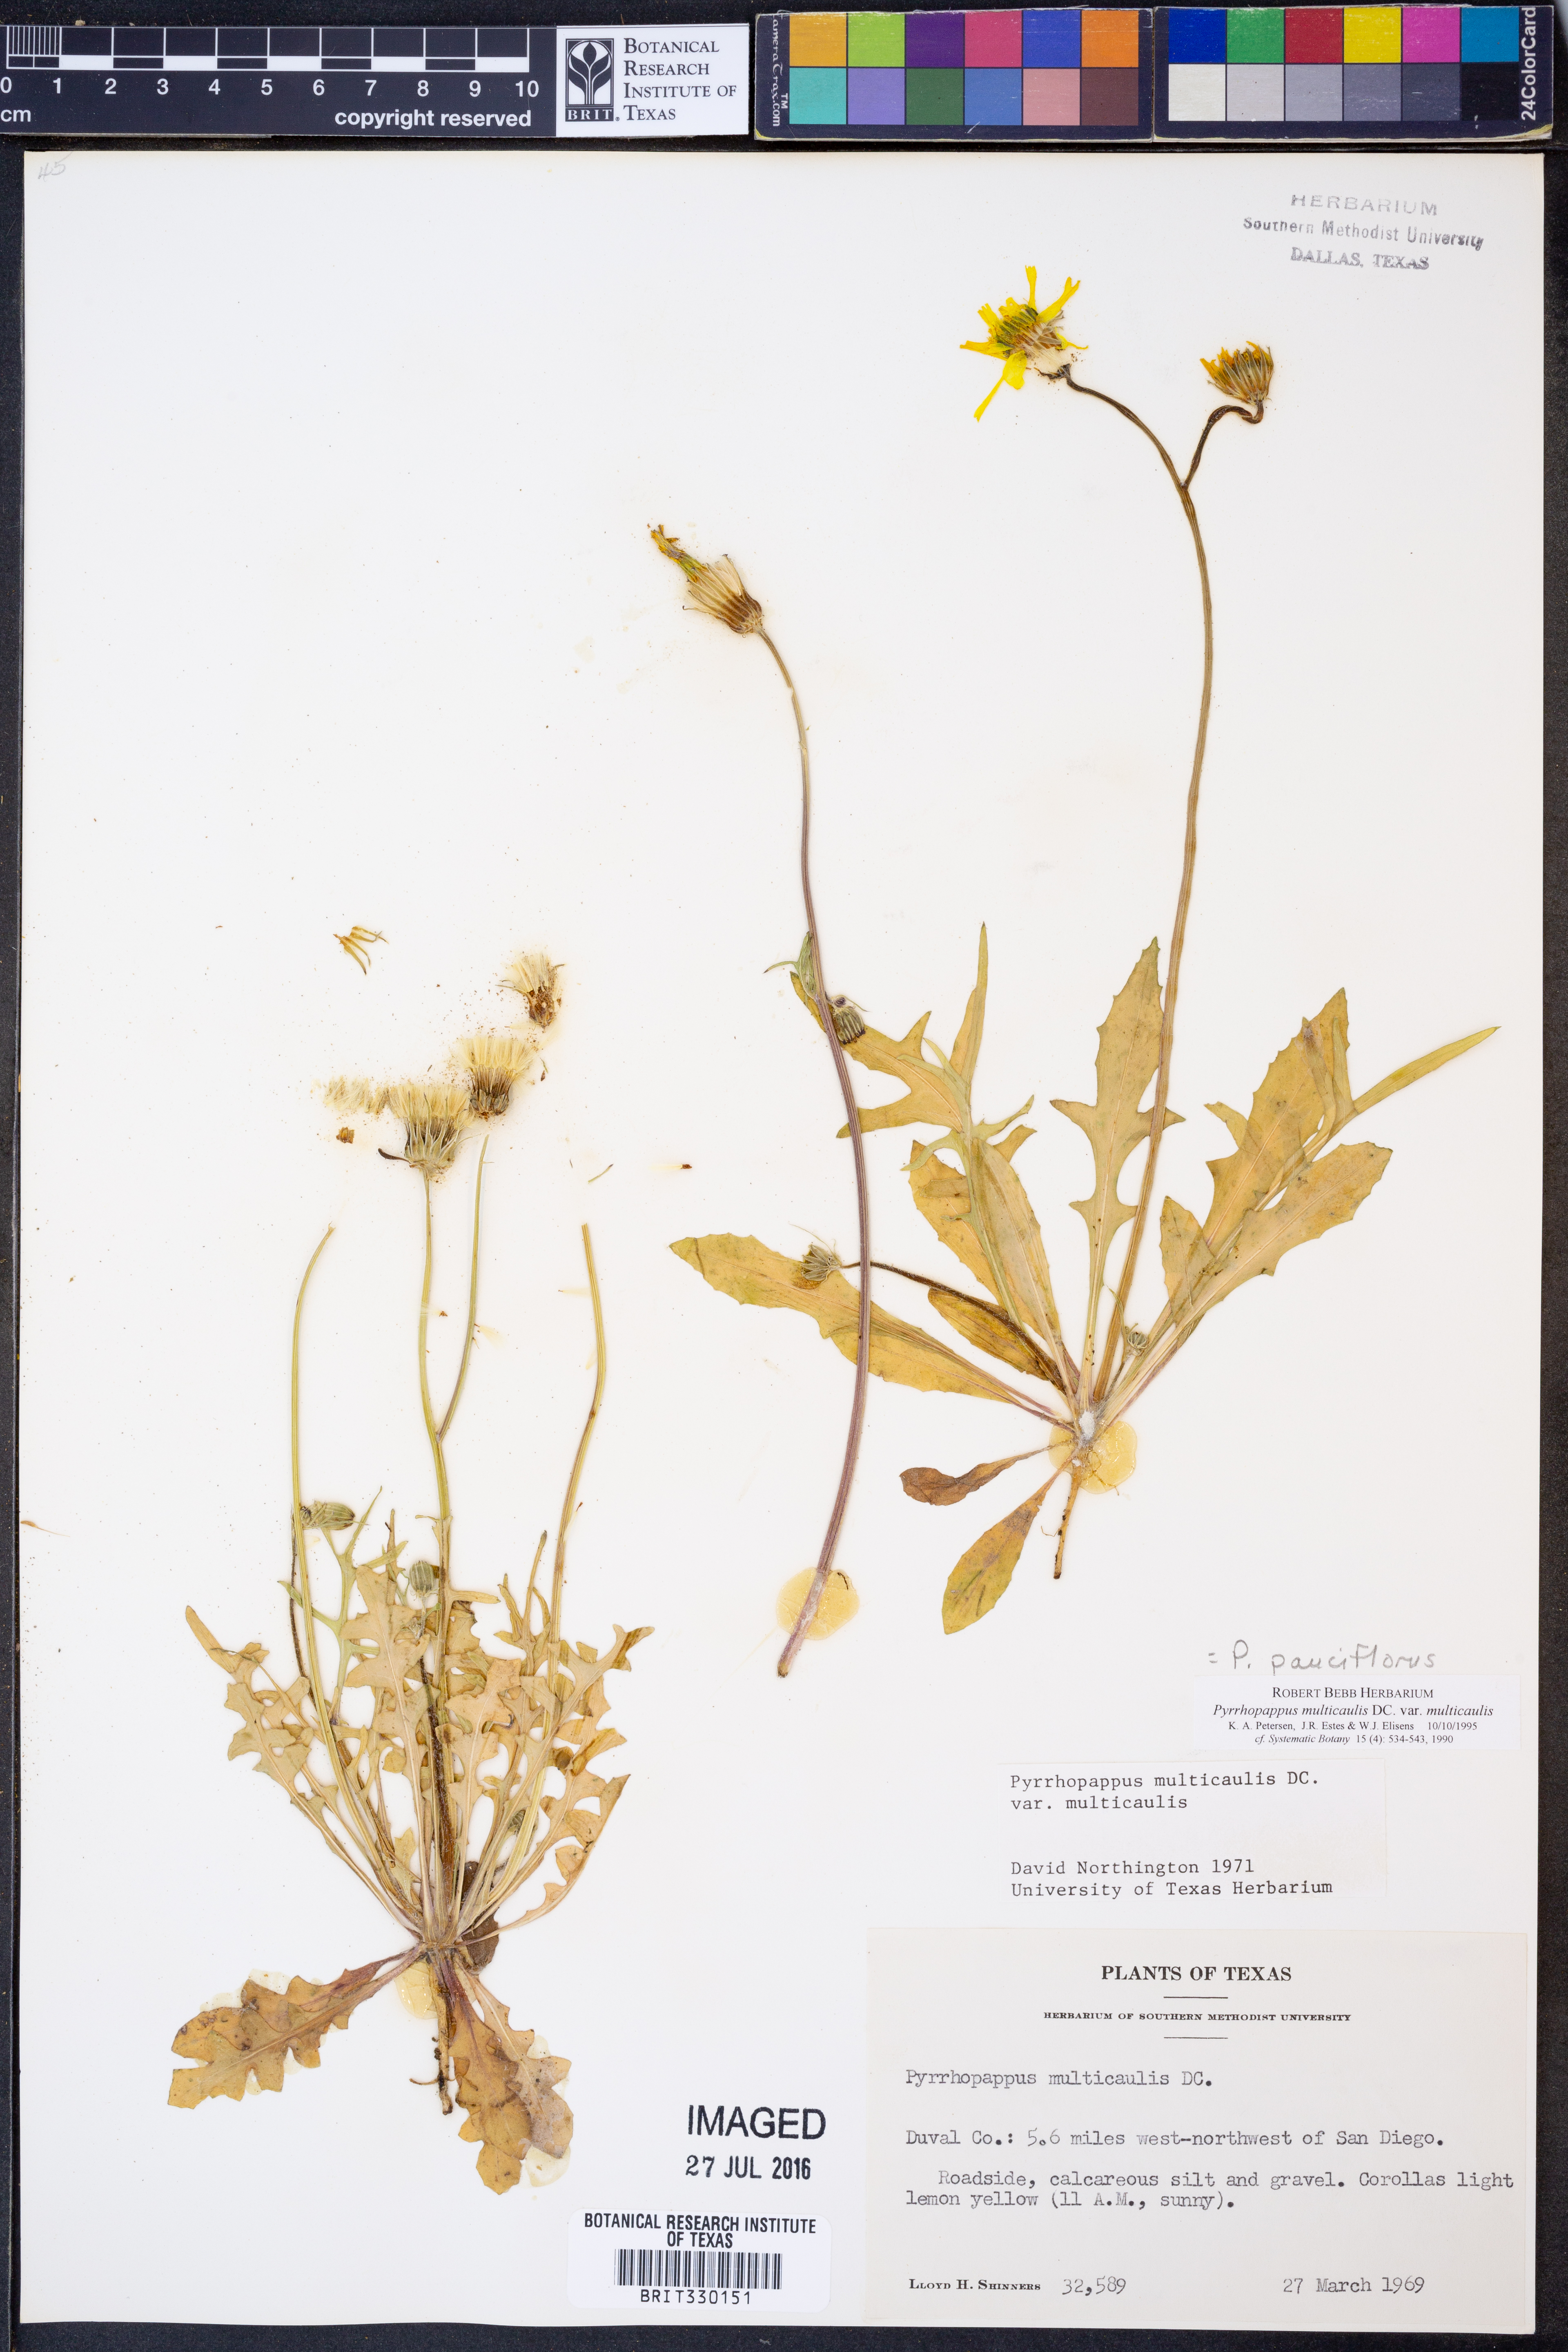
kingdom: Plantae
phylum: Tracheophyta
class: Magnoliopsida
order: Asterales
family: Asteraceae
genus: Pyrrhopappus
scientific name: Pyrrhopappus pauciflorus
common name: Texas false dandelion
